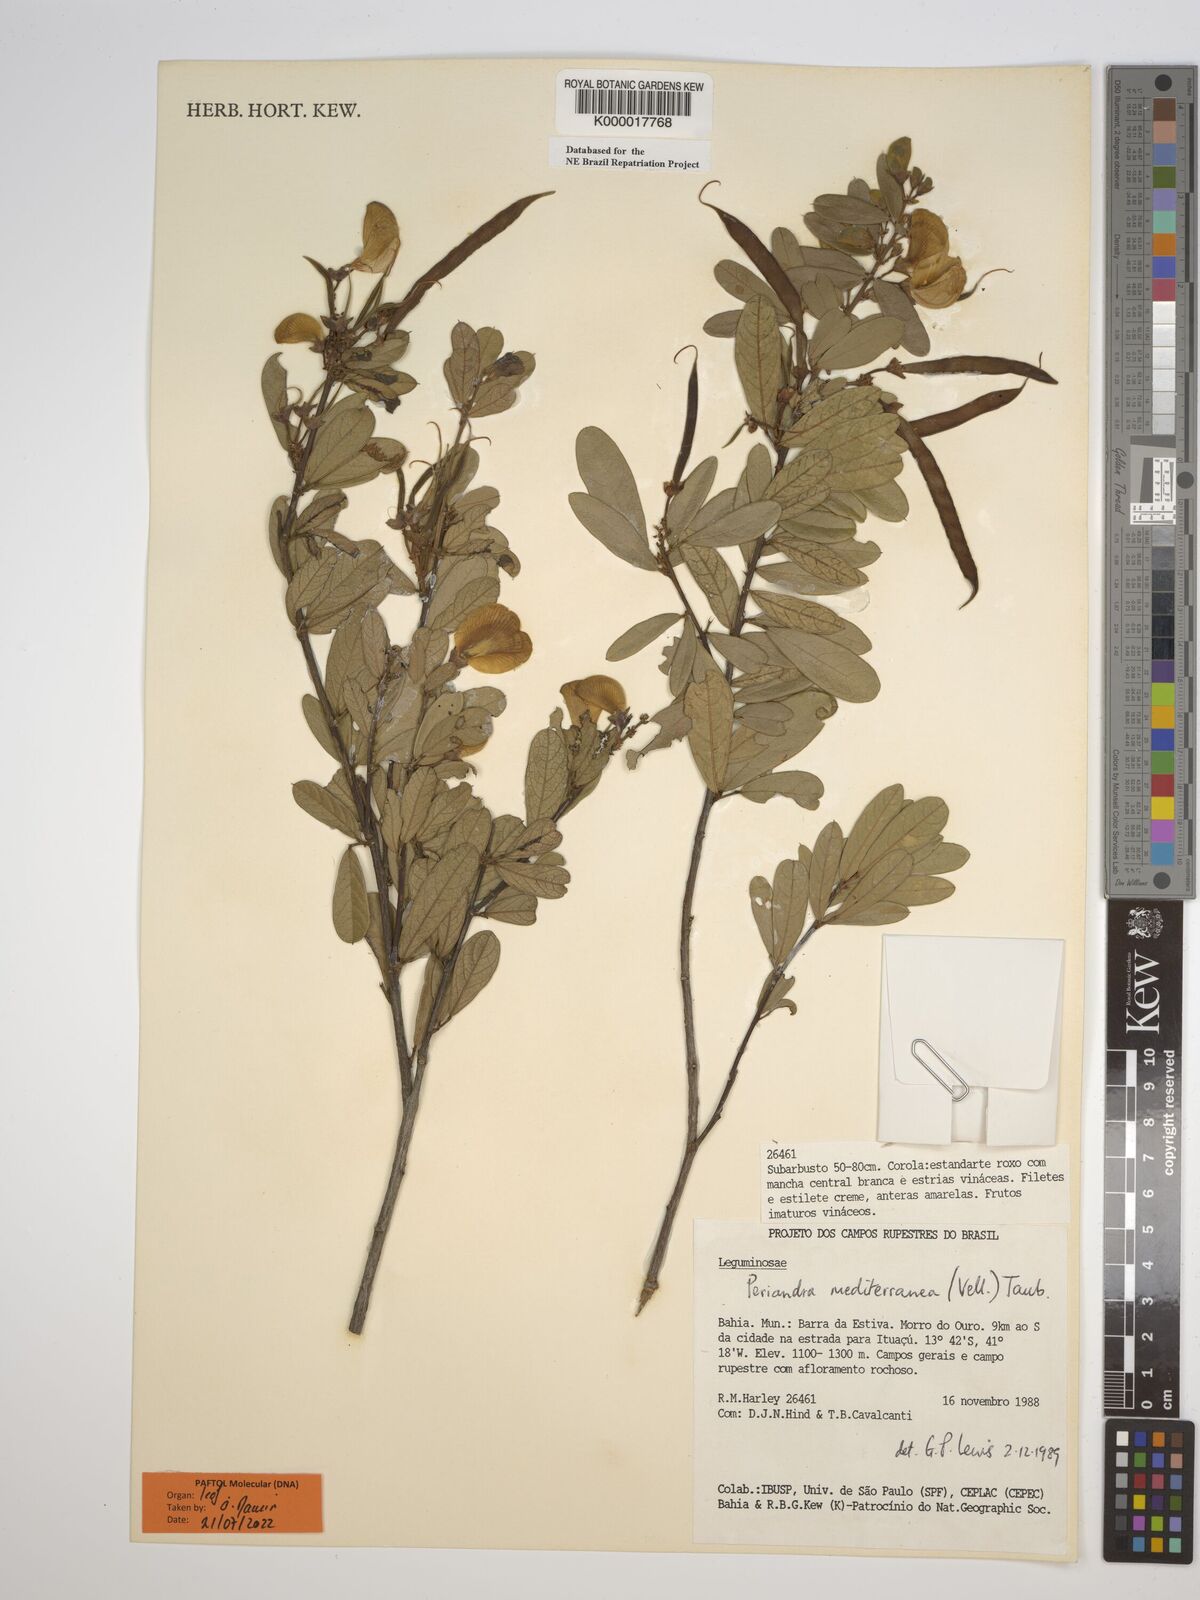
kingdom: Plantae
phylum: Tracheophyta
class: Magnoliopsida
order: Fabales
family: Fabaceae
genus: Periandra
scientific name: Periandra mediterranea
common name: Brazilian licorice
